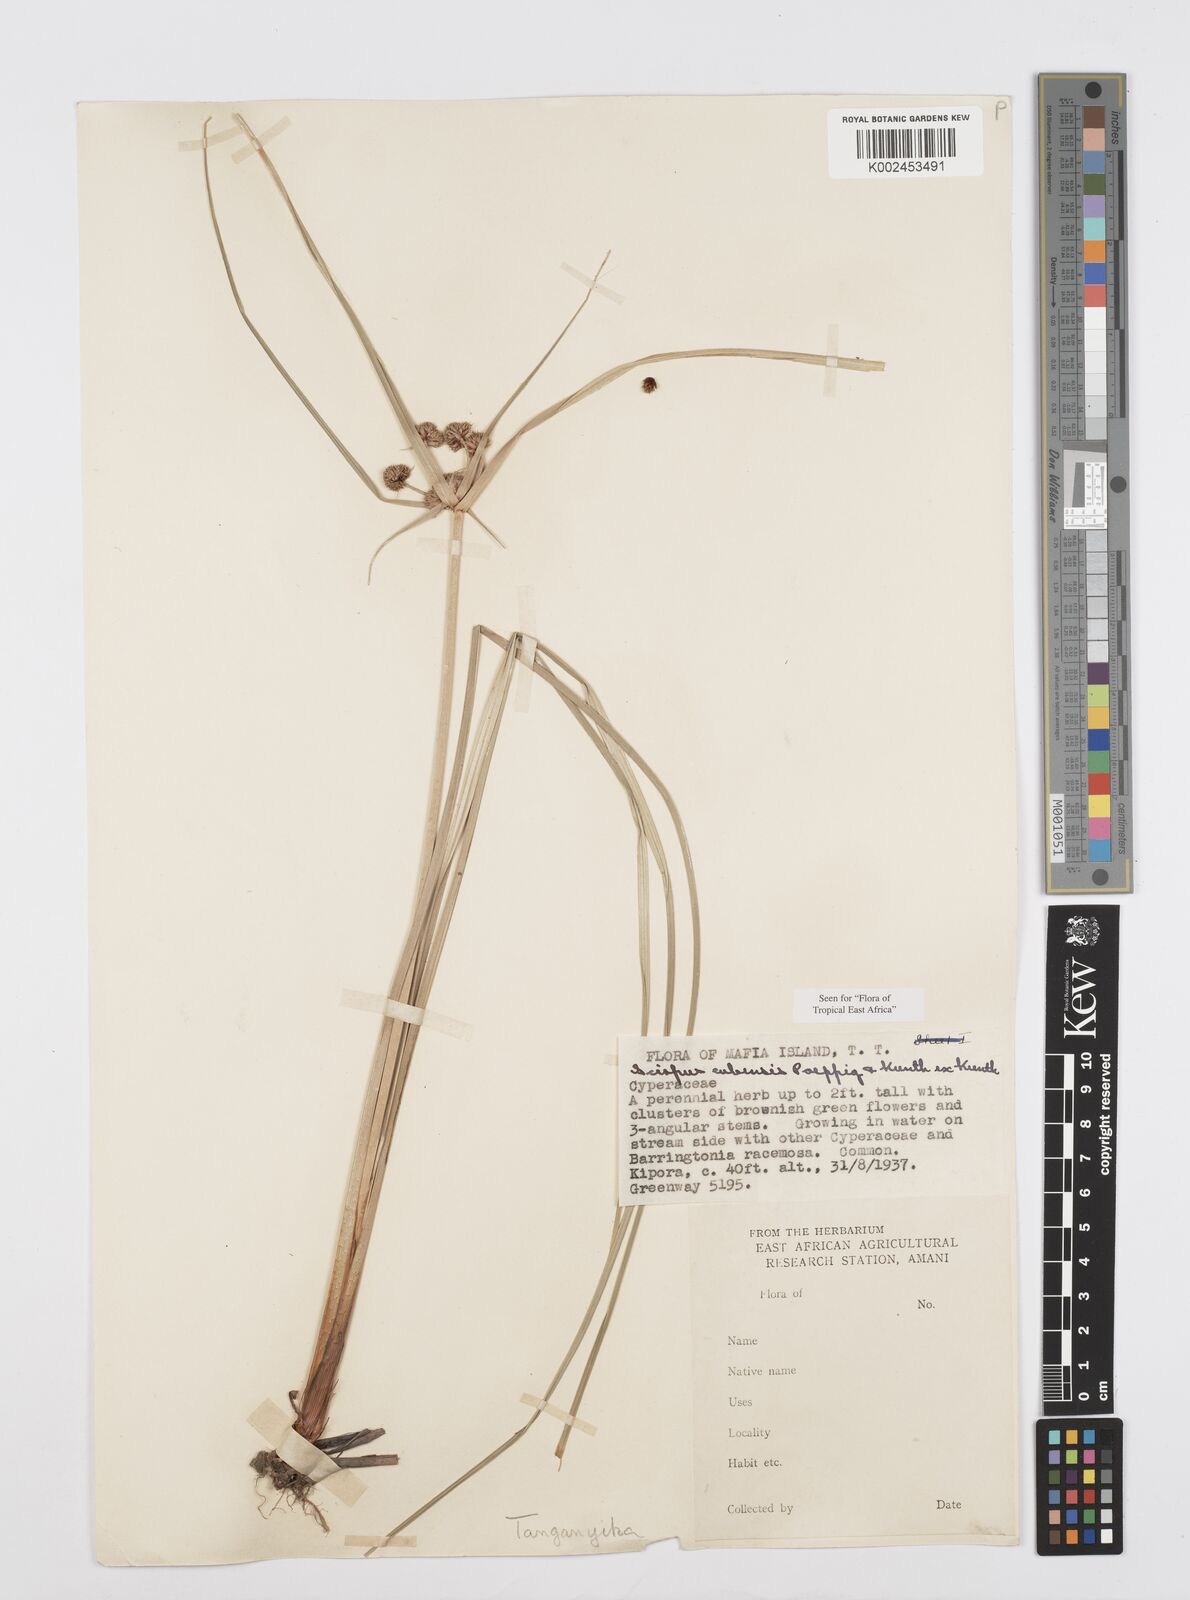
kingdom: Plantae
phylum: Tracheophyta
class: Liliopsida
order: Poales
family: Cyperaceae
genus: Cyperus
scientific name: Cyperus elegans
